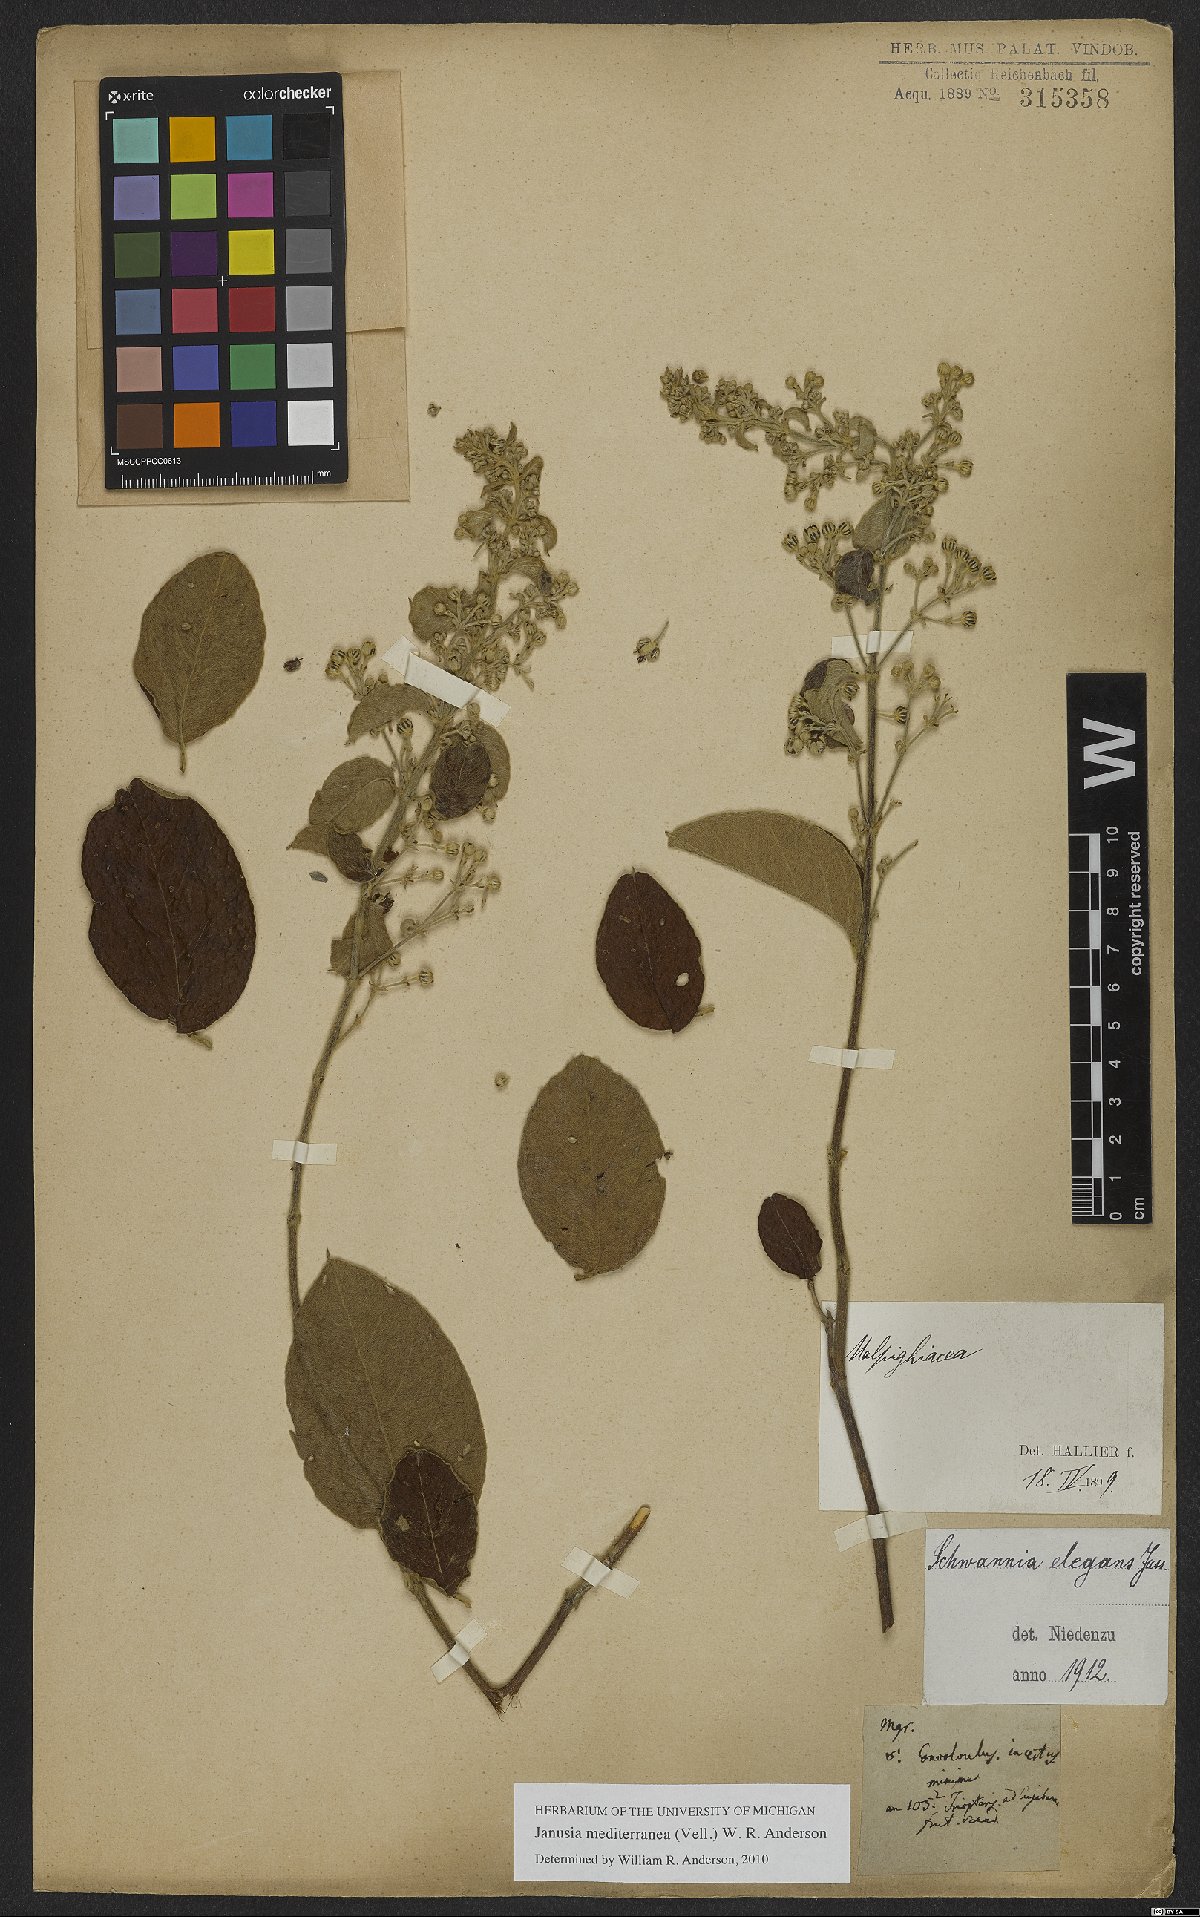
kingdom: Plantae
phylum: Tracheophyta
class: Magnoliopsida
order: Malpighiales
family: Malpighiaceae
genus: Janusia
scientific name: Janusia mediterranea
